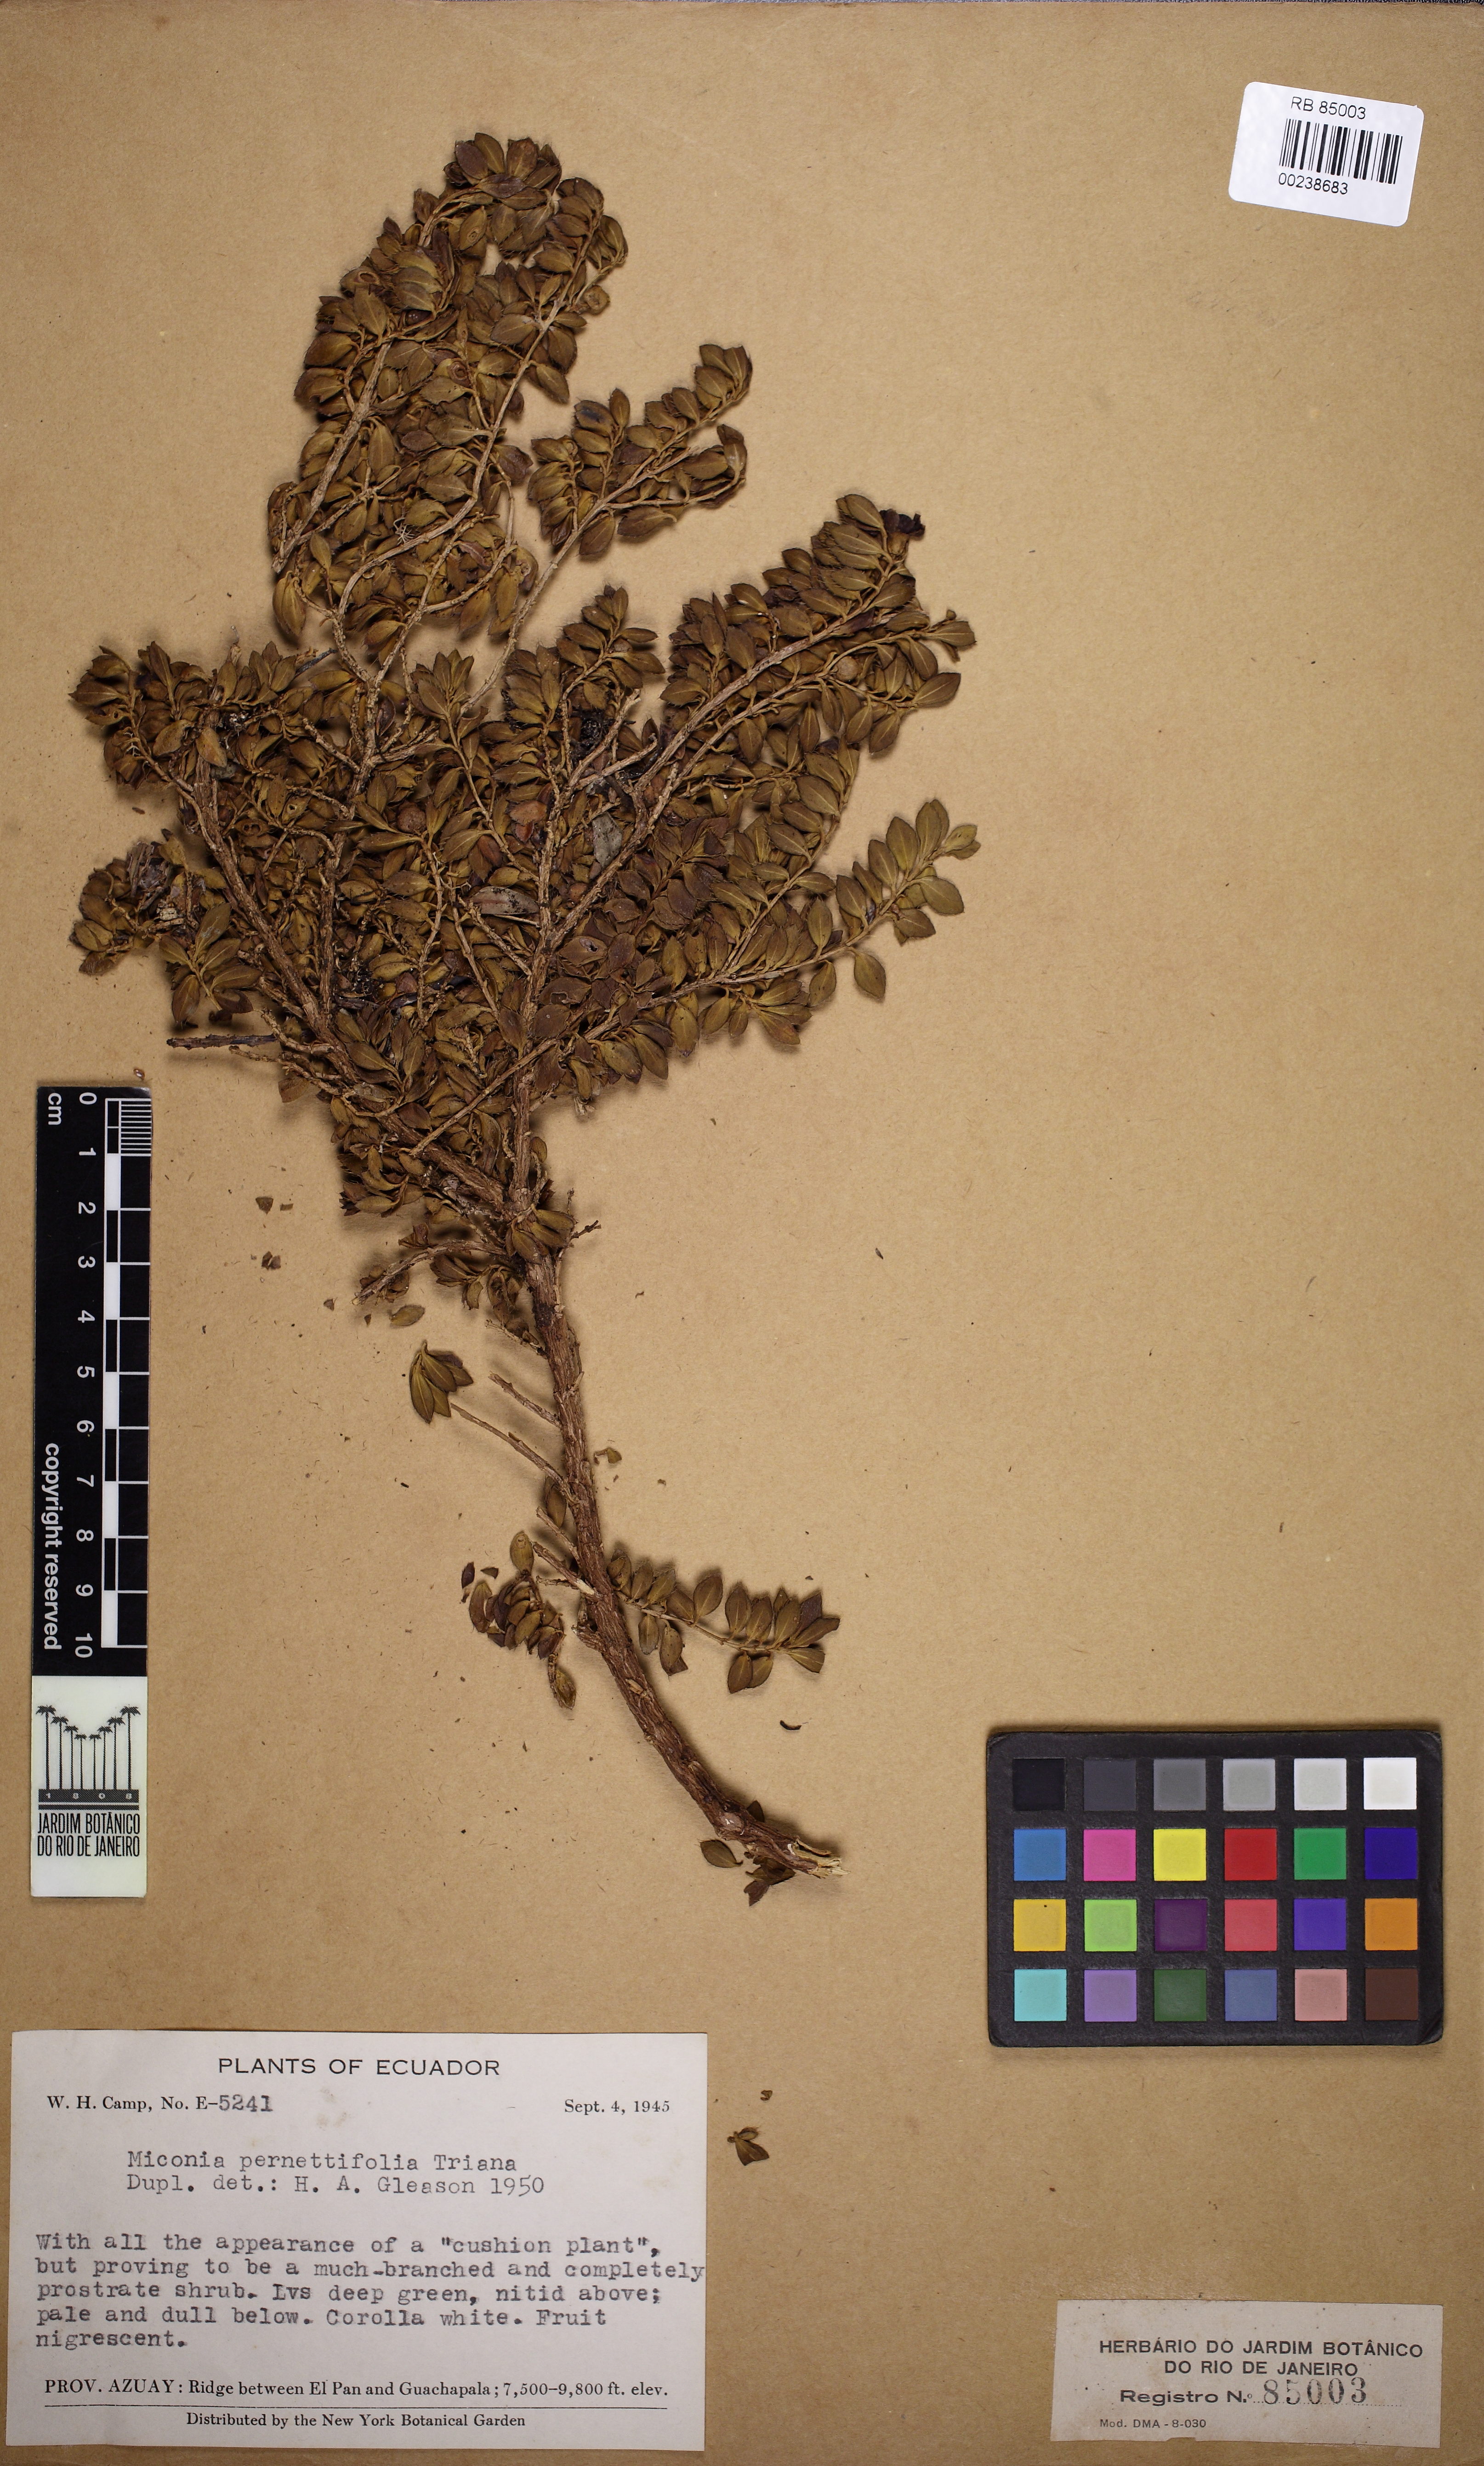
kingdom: Plantae
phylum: Tracheophyta
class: Magnoliopsida
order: Myrtales
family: Melastomataceae
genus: Miconia
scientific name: Miconia pernettifolia
